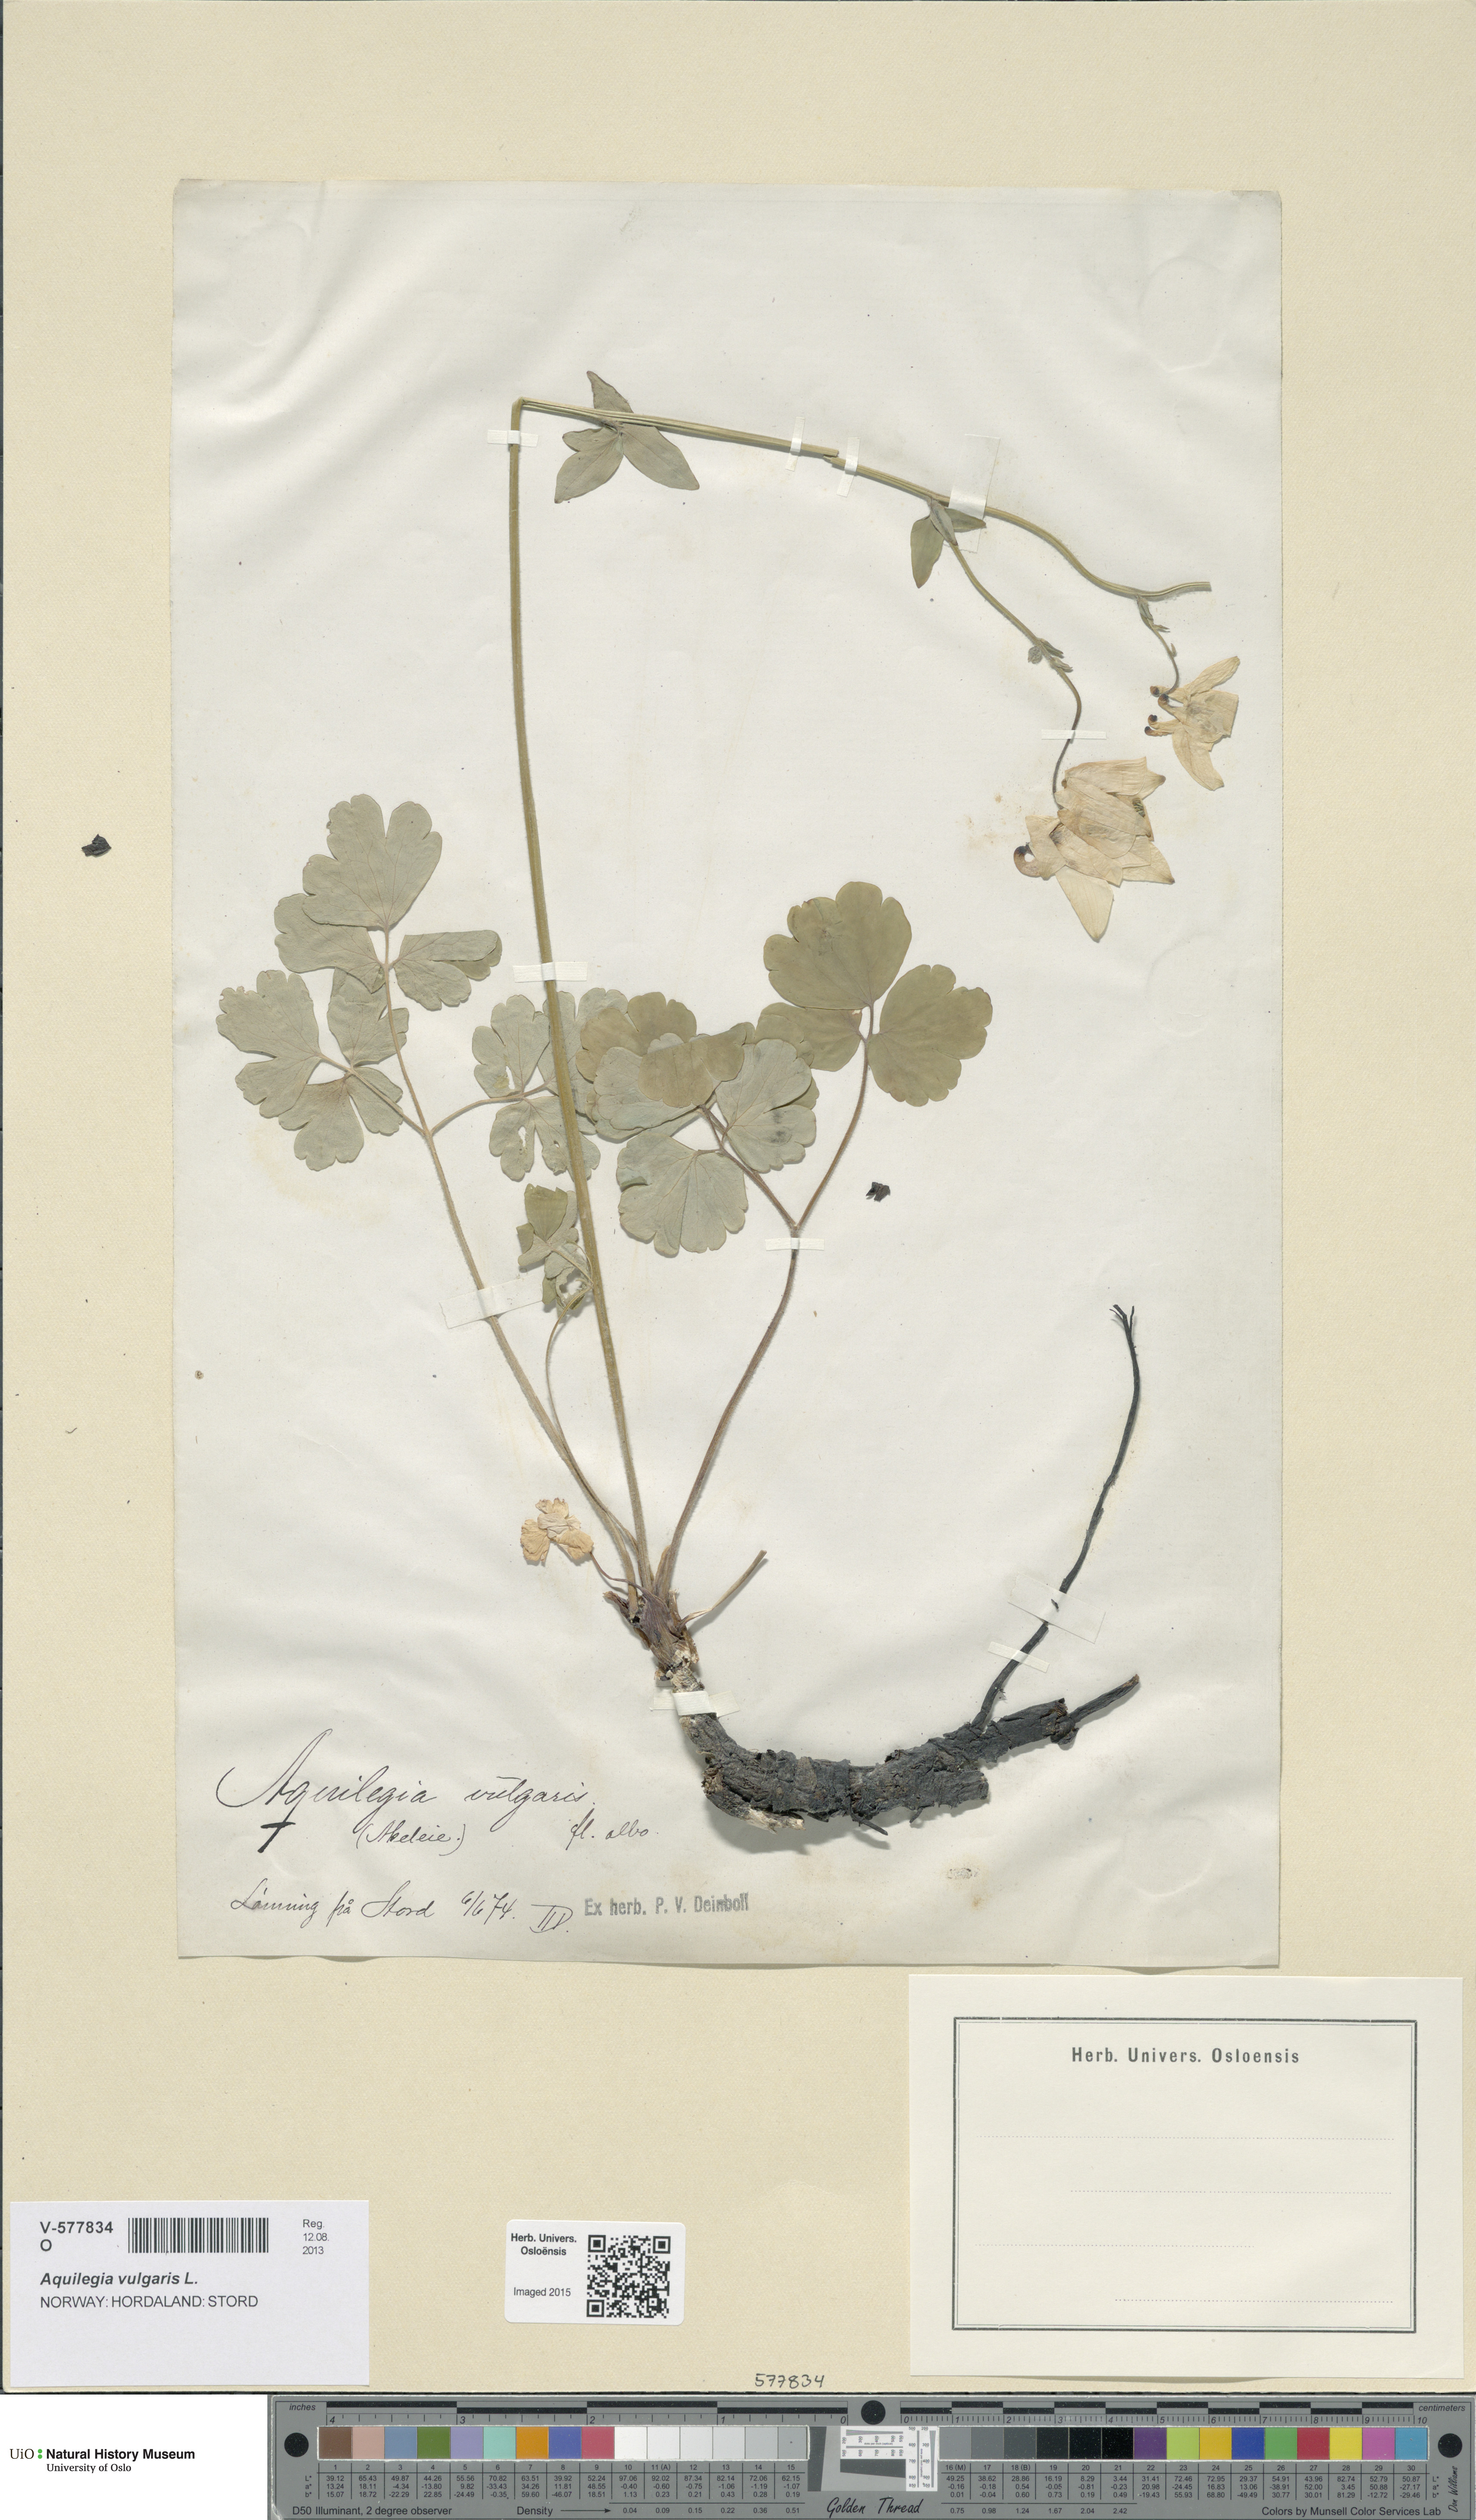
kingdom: Plantae
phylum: Tracheophyta
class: Magnoliopsida
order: Ranunculales
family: Ranunculaceae
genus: Aquilegia
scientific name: Aquilegia vulgaris
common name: Columbine
